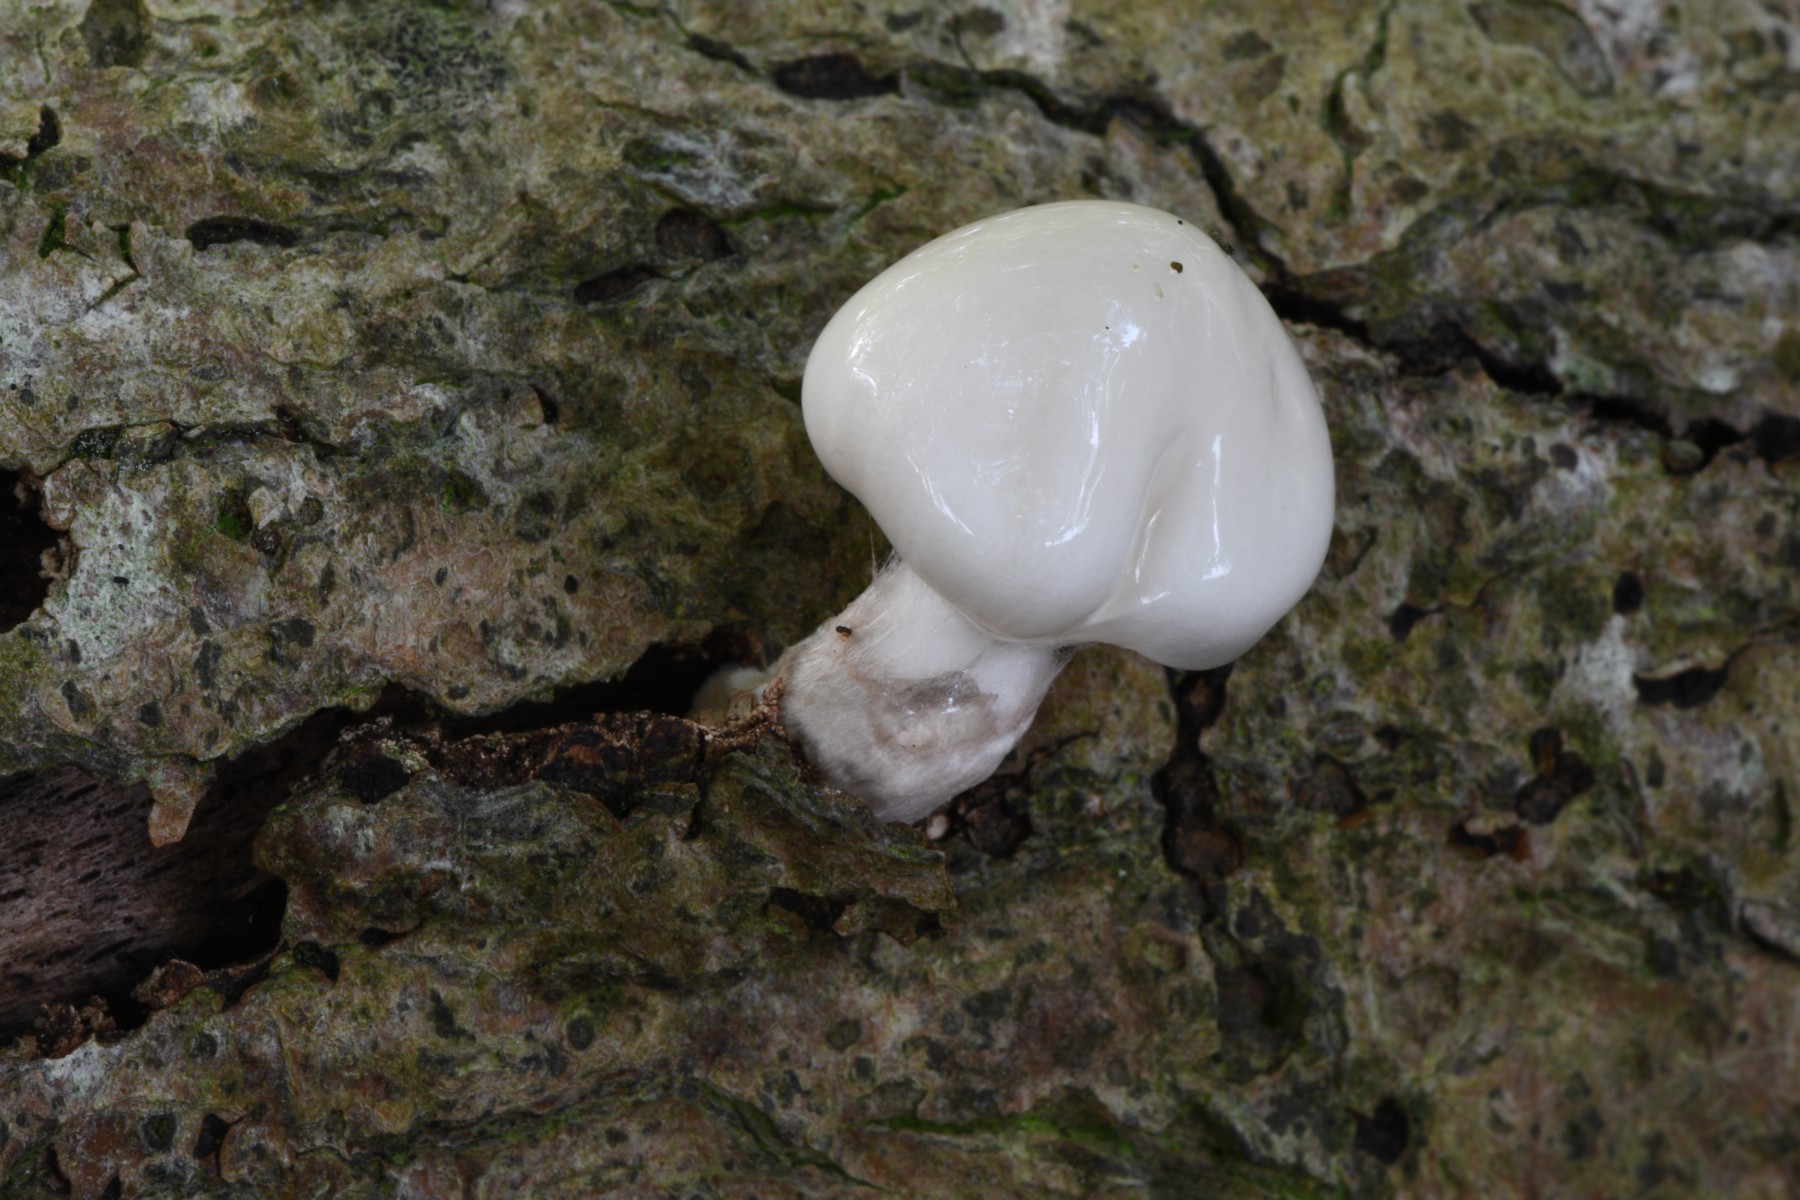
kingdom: Fungi
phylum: Basidiomycota
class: Agaricomycetes
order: Agaricales
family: Physalacriaceae
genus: Mucidula
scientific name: Mucidula mucida
